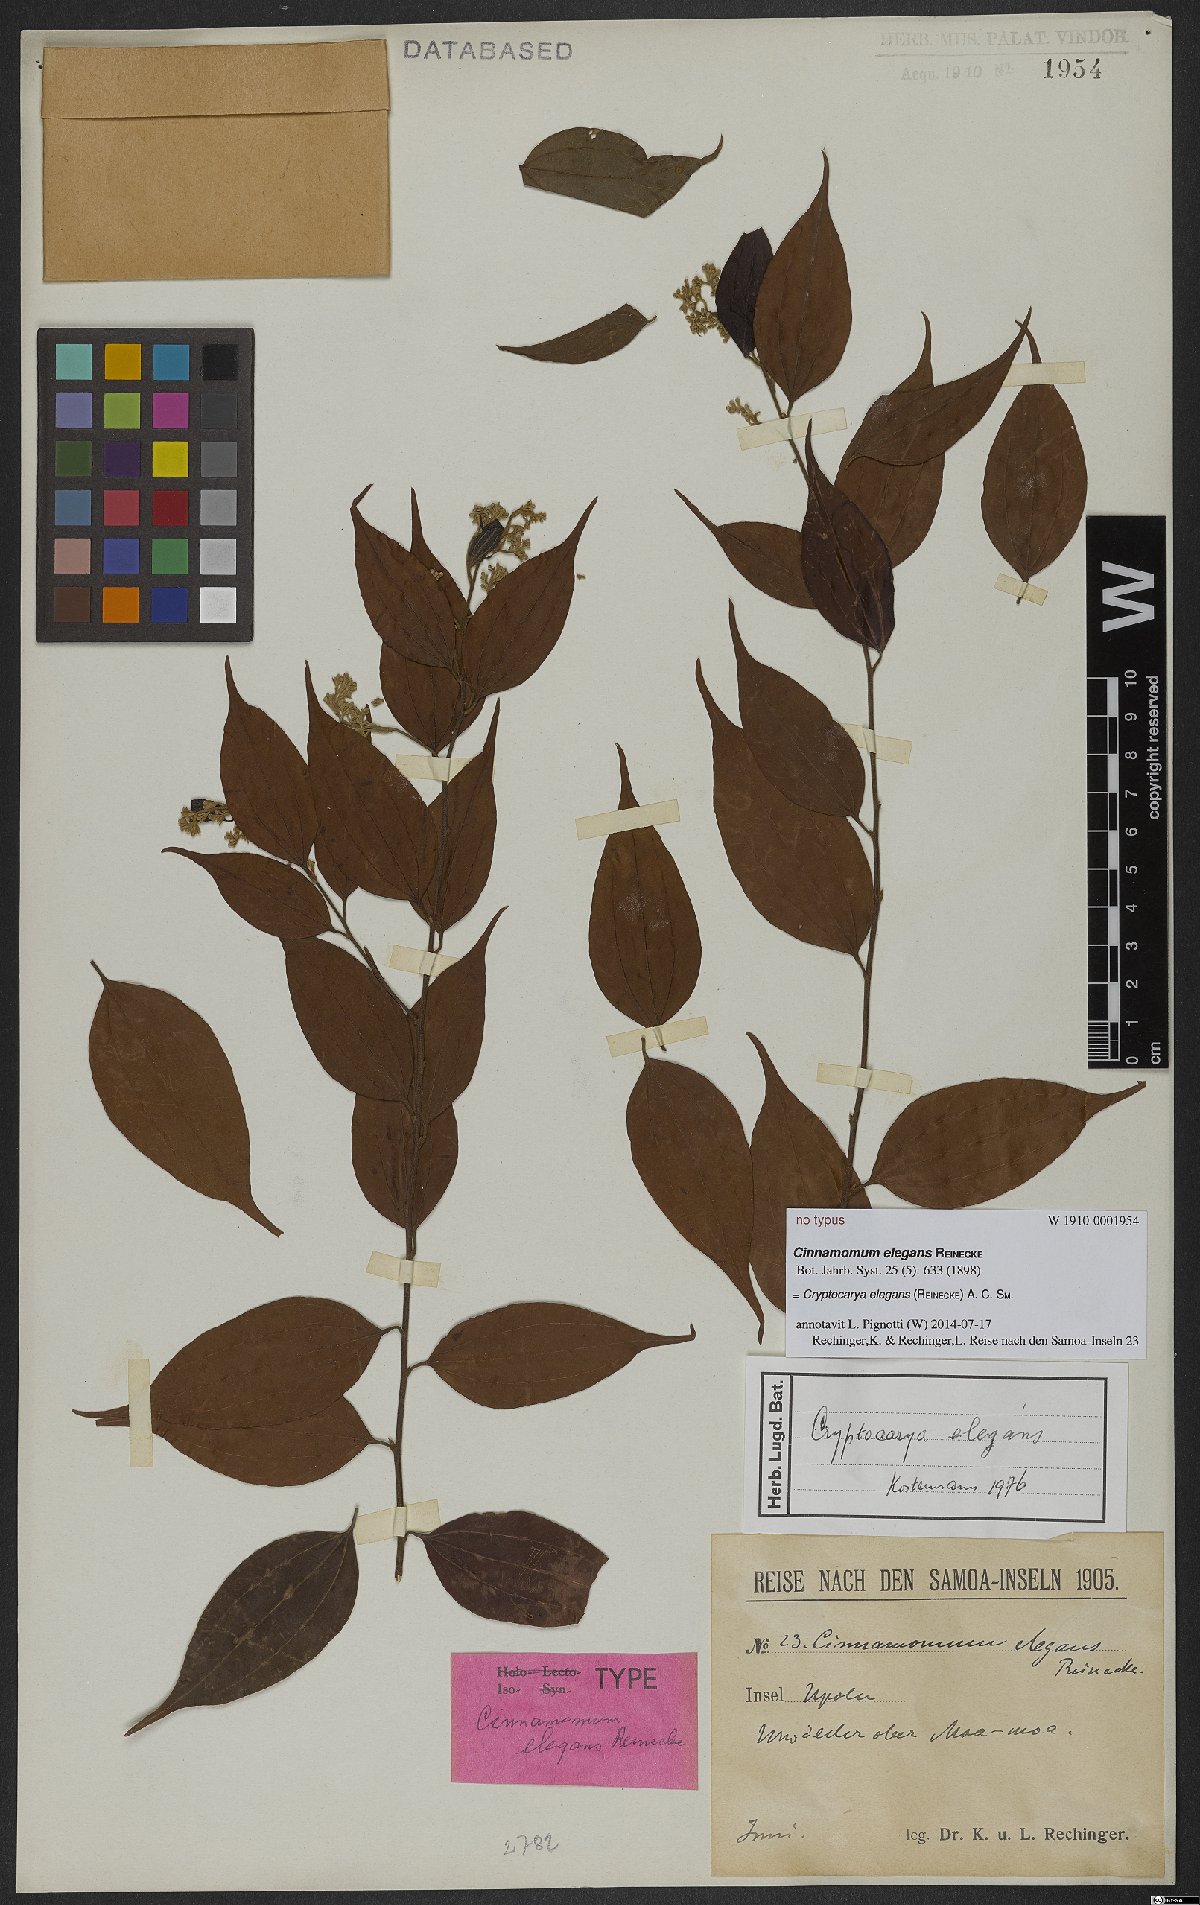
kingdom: Plantae
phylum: Tracheophyta
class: Magnoliopsida
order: Laurales
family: Lauraceae
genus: Cryptocarya
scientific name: Cryptocarya elegans
